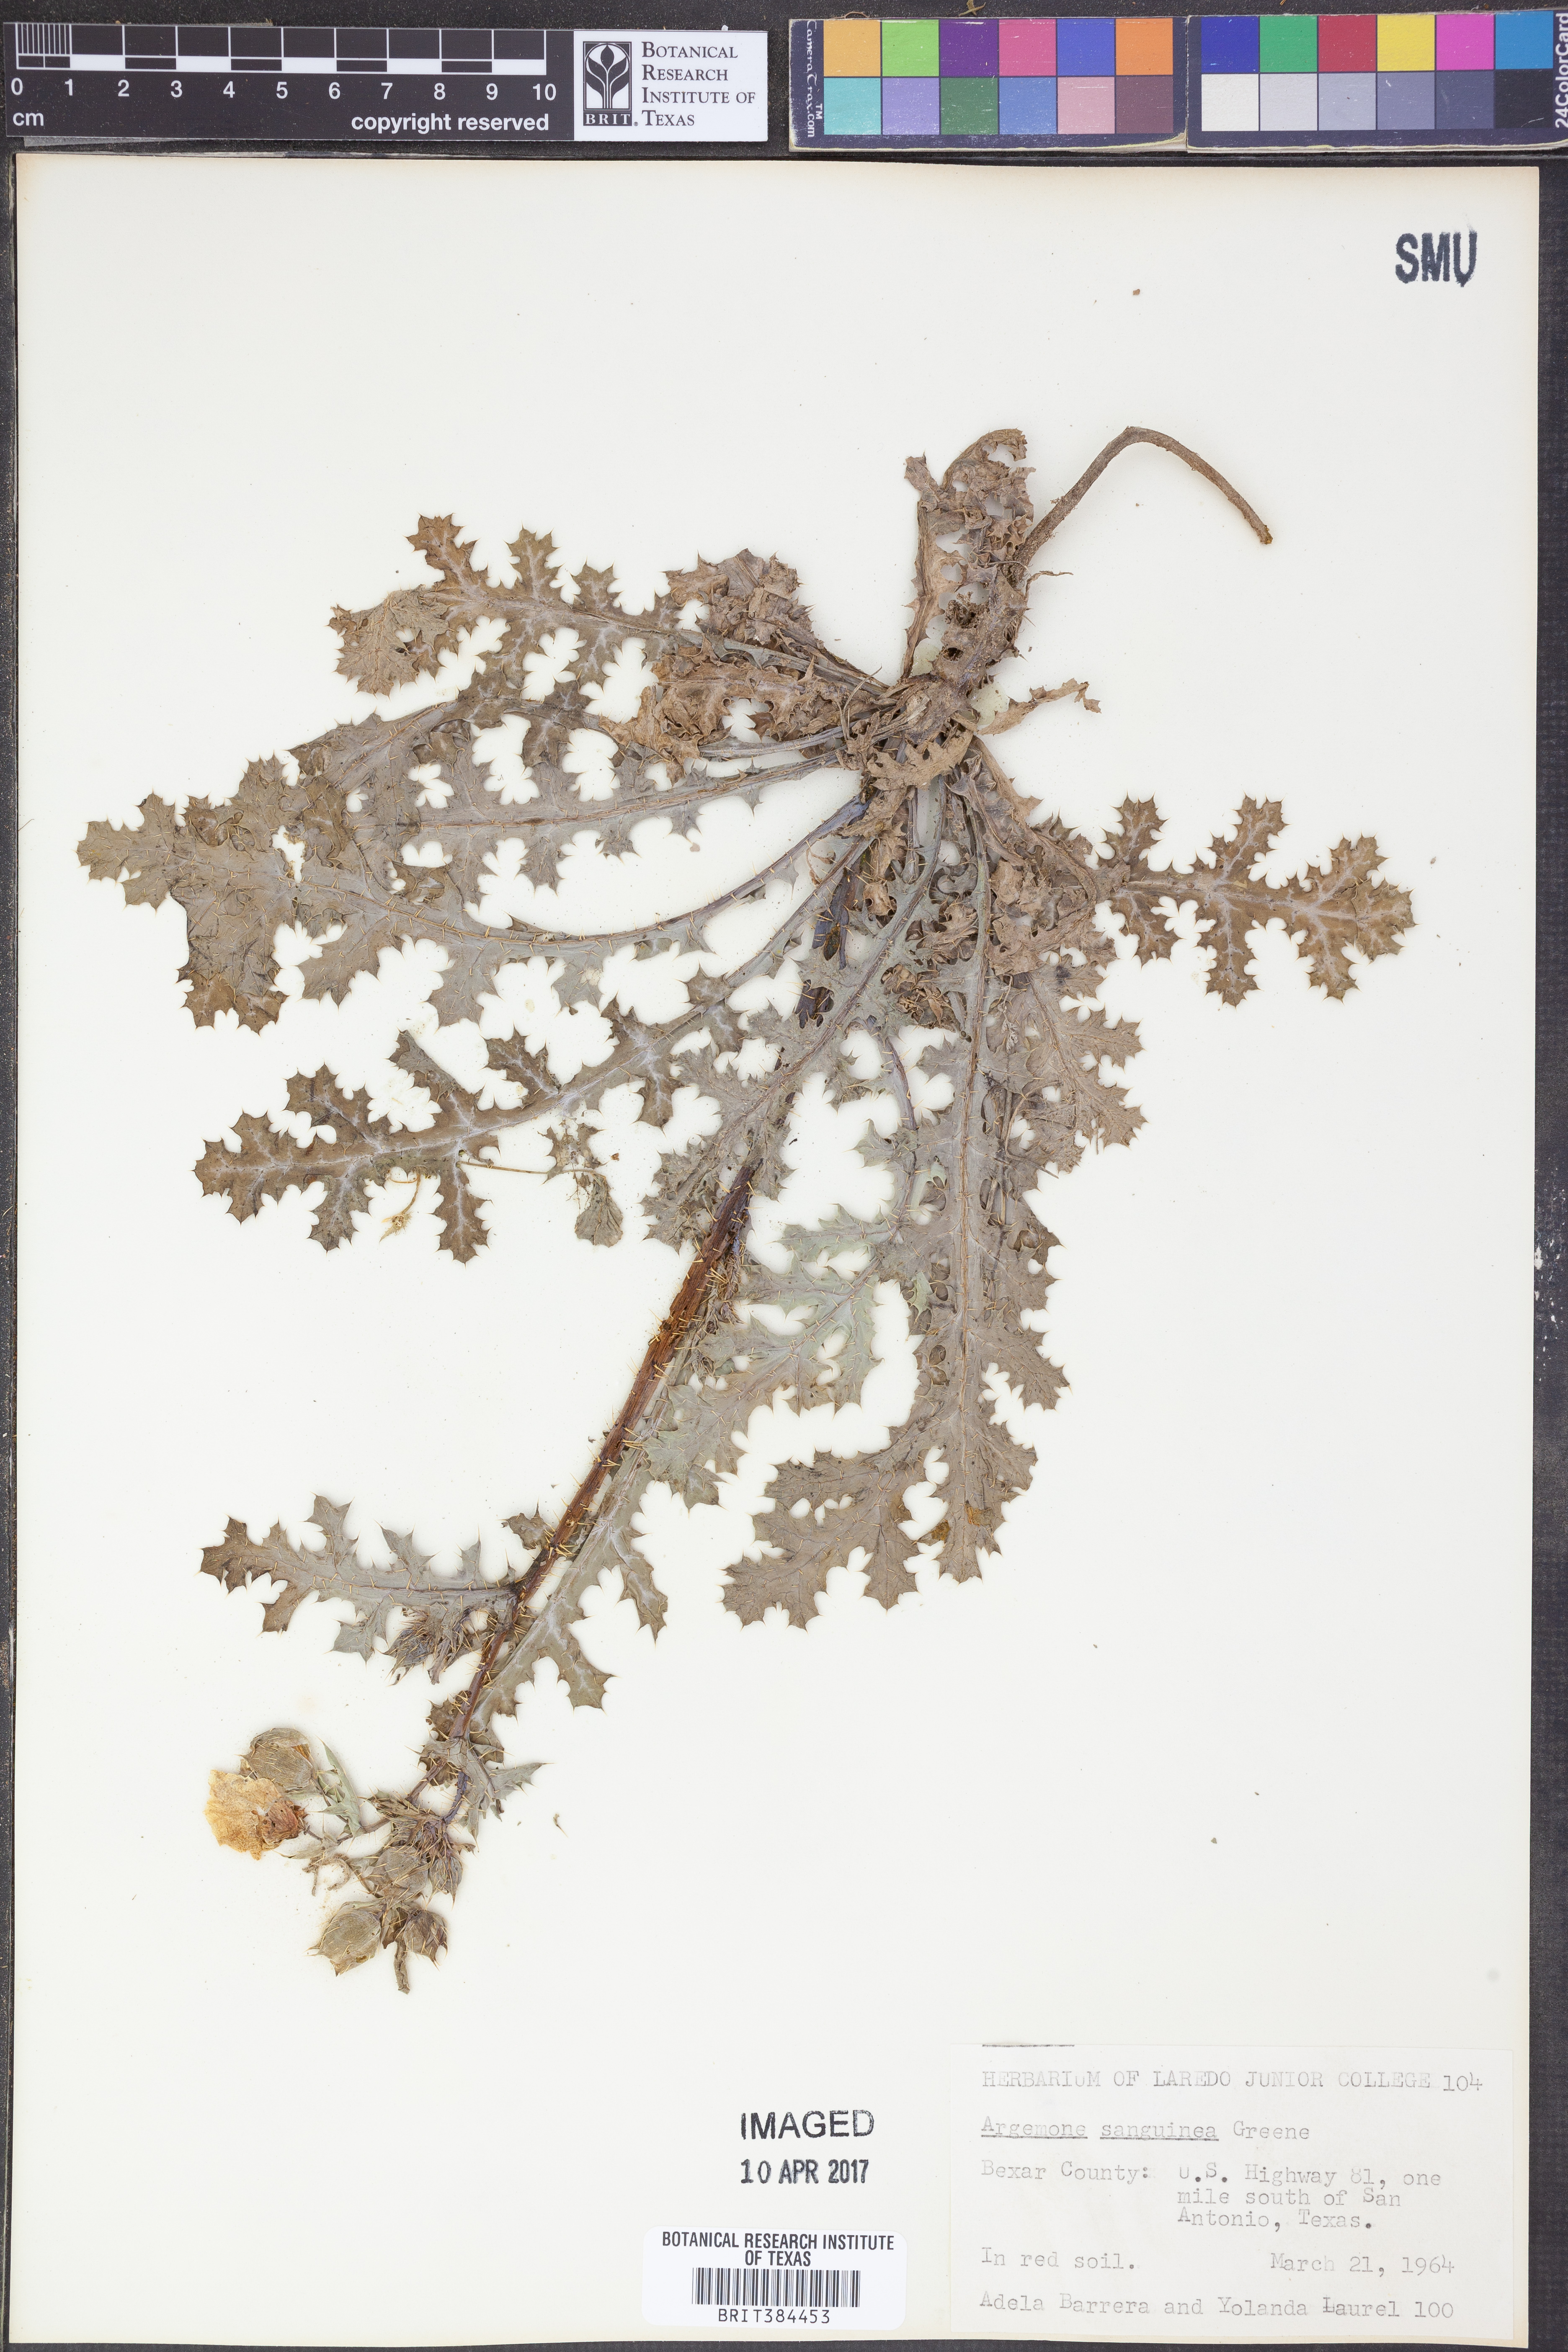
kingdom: Plantae
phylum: Tracheophyta
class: Magnoliopsida
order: Ranunculales
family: Papaveraceae
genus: Argemone
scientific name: Argemone sanguinea
